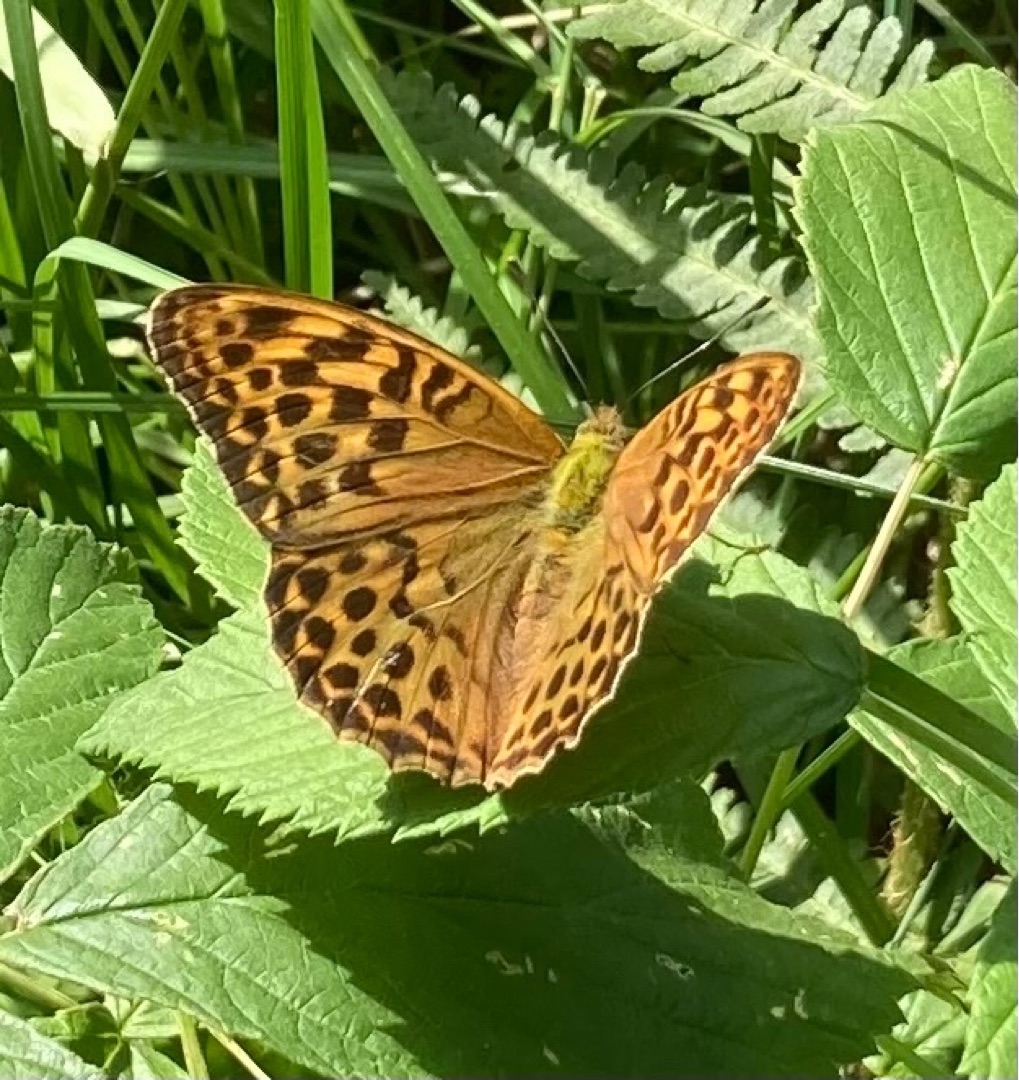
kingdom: Animalia
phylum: Arthropoda
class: Insecta
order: Lepidoptera
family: Nymphalidae
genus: Argynnis
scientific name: Argynnis paphia
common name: Kejserkåbe
